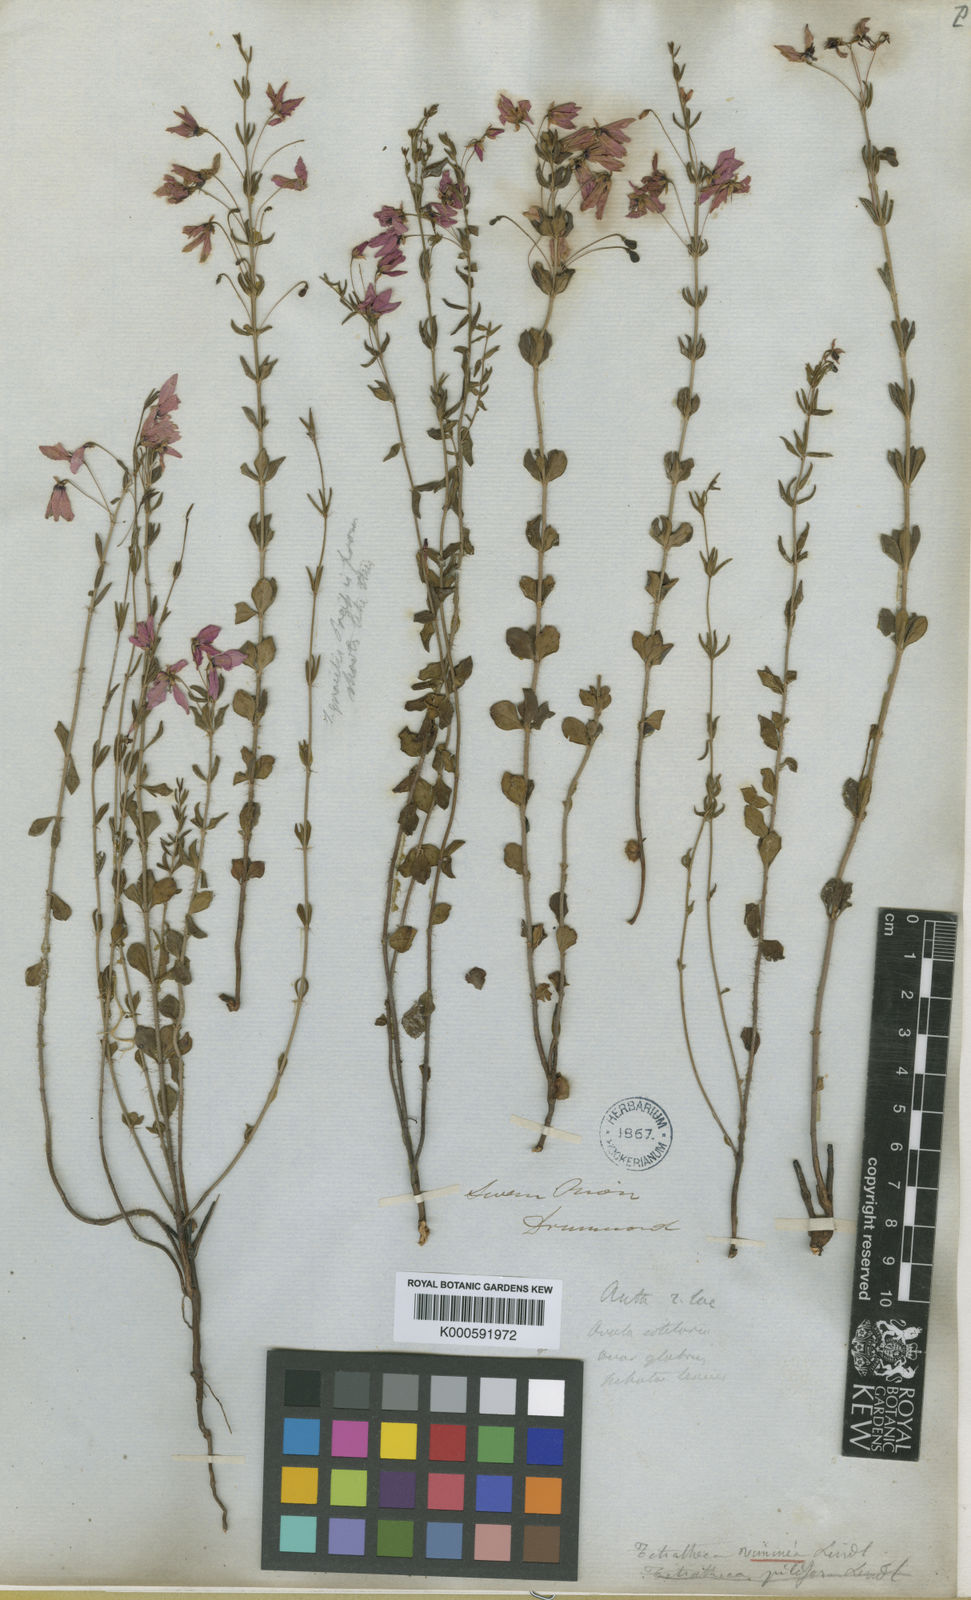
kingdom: Plantae
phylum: Tracheophyta
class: Magnoliopsida
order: Oxalidales
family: Elaeocarpaceae
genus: Tetratheca
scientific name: Tetratheca hirsuta
